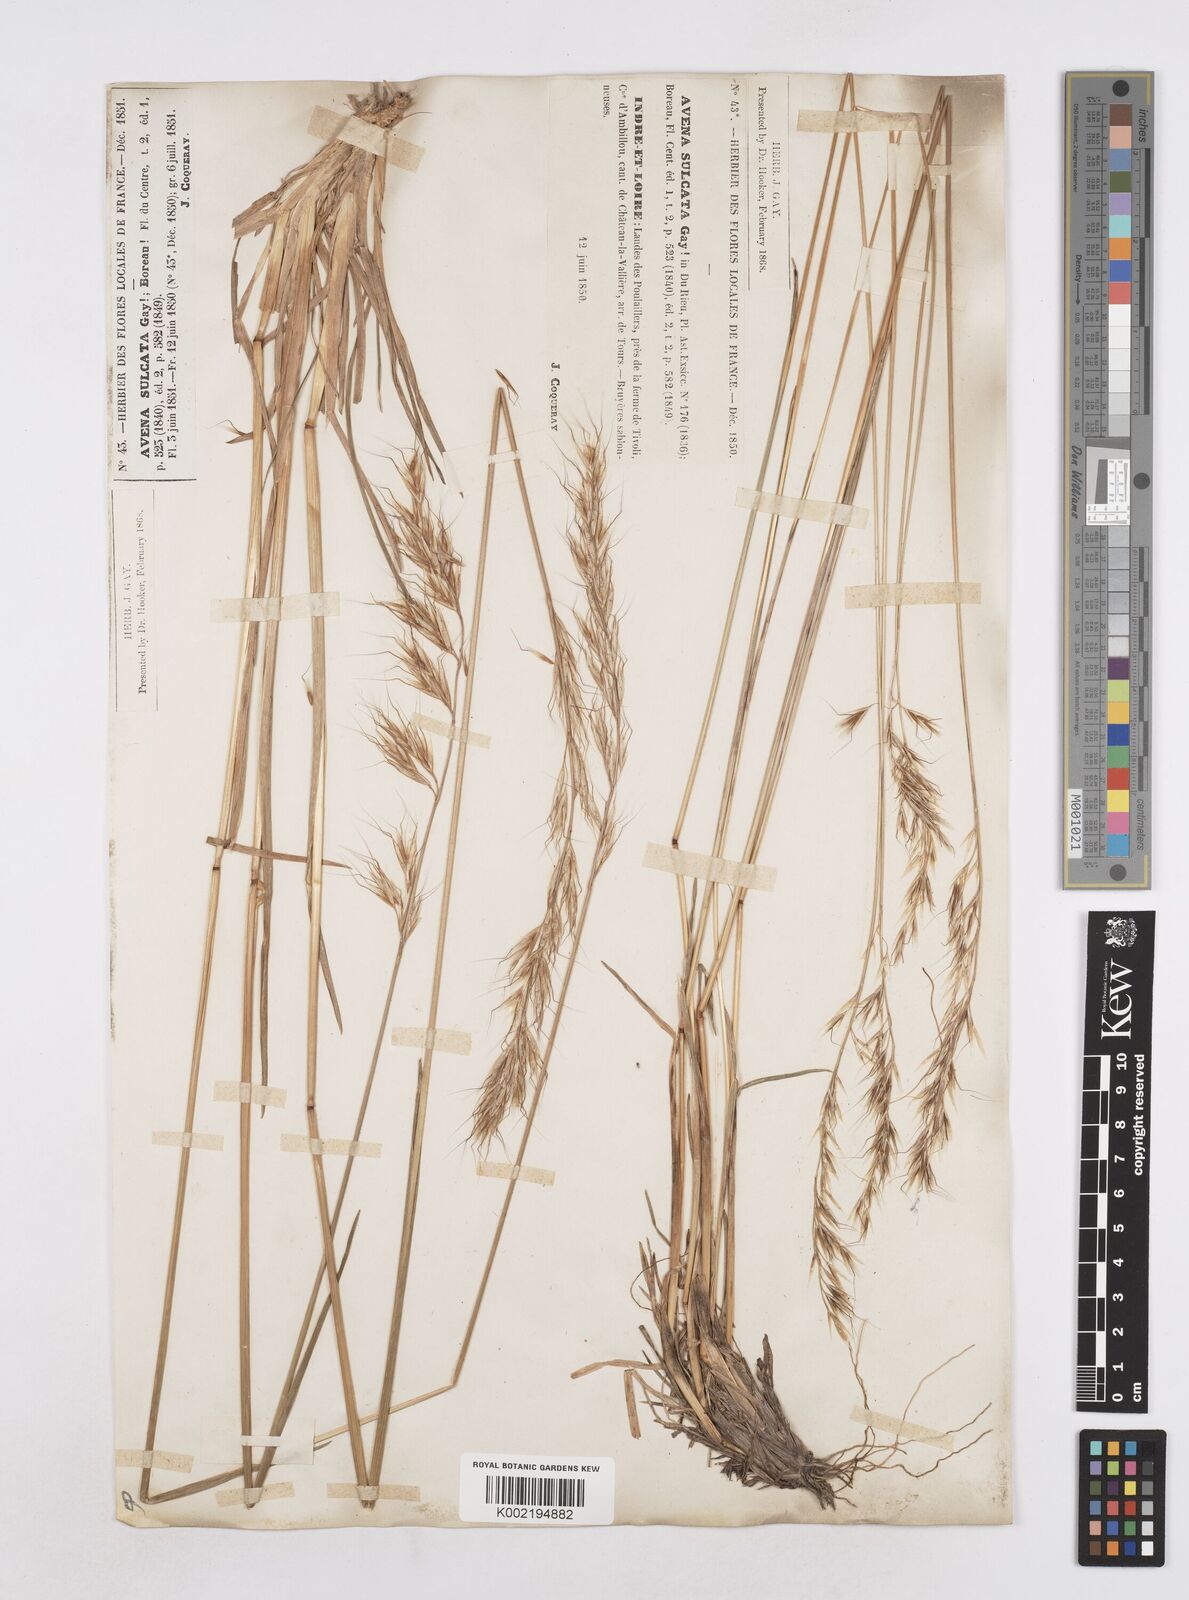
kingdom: Plantae
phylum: Tracheophyta
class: Liliopsida
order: Poales
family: Poaceae
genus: Helictotrichon
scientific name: Helictotrichon
